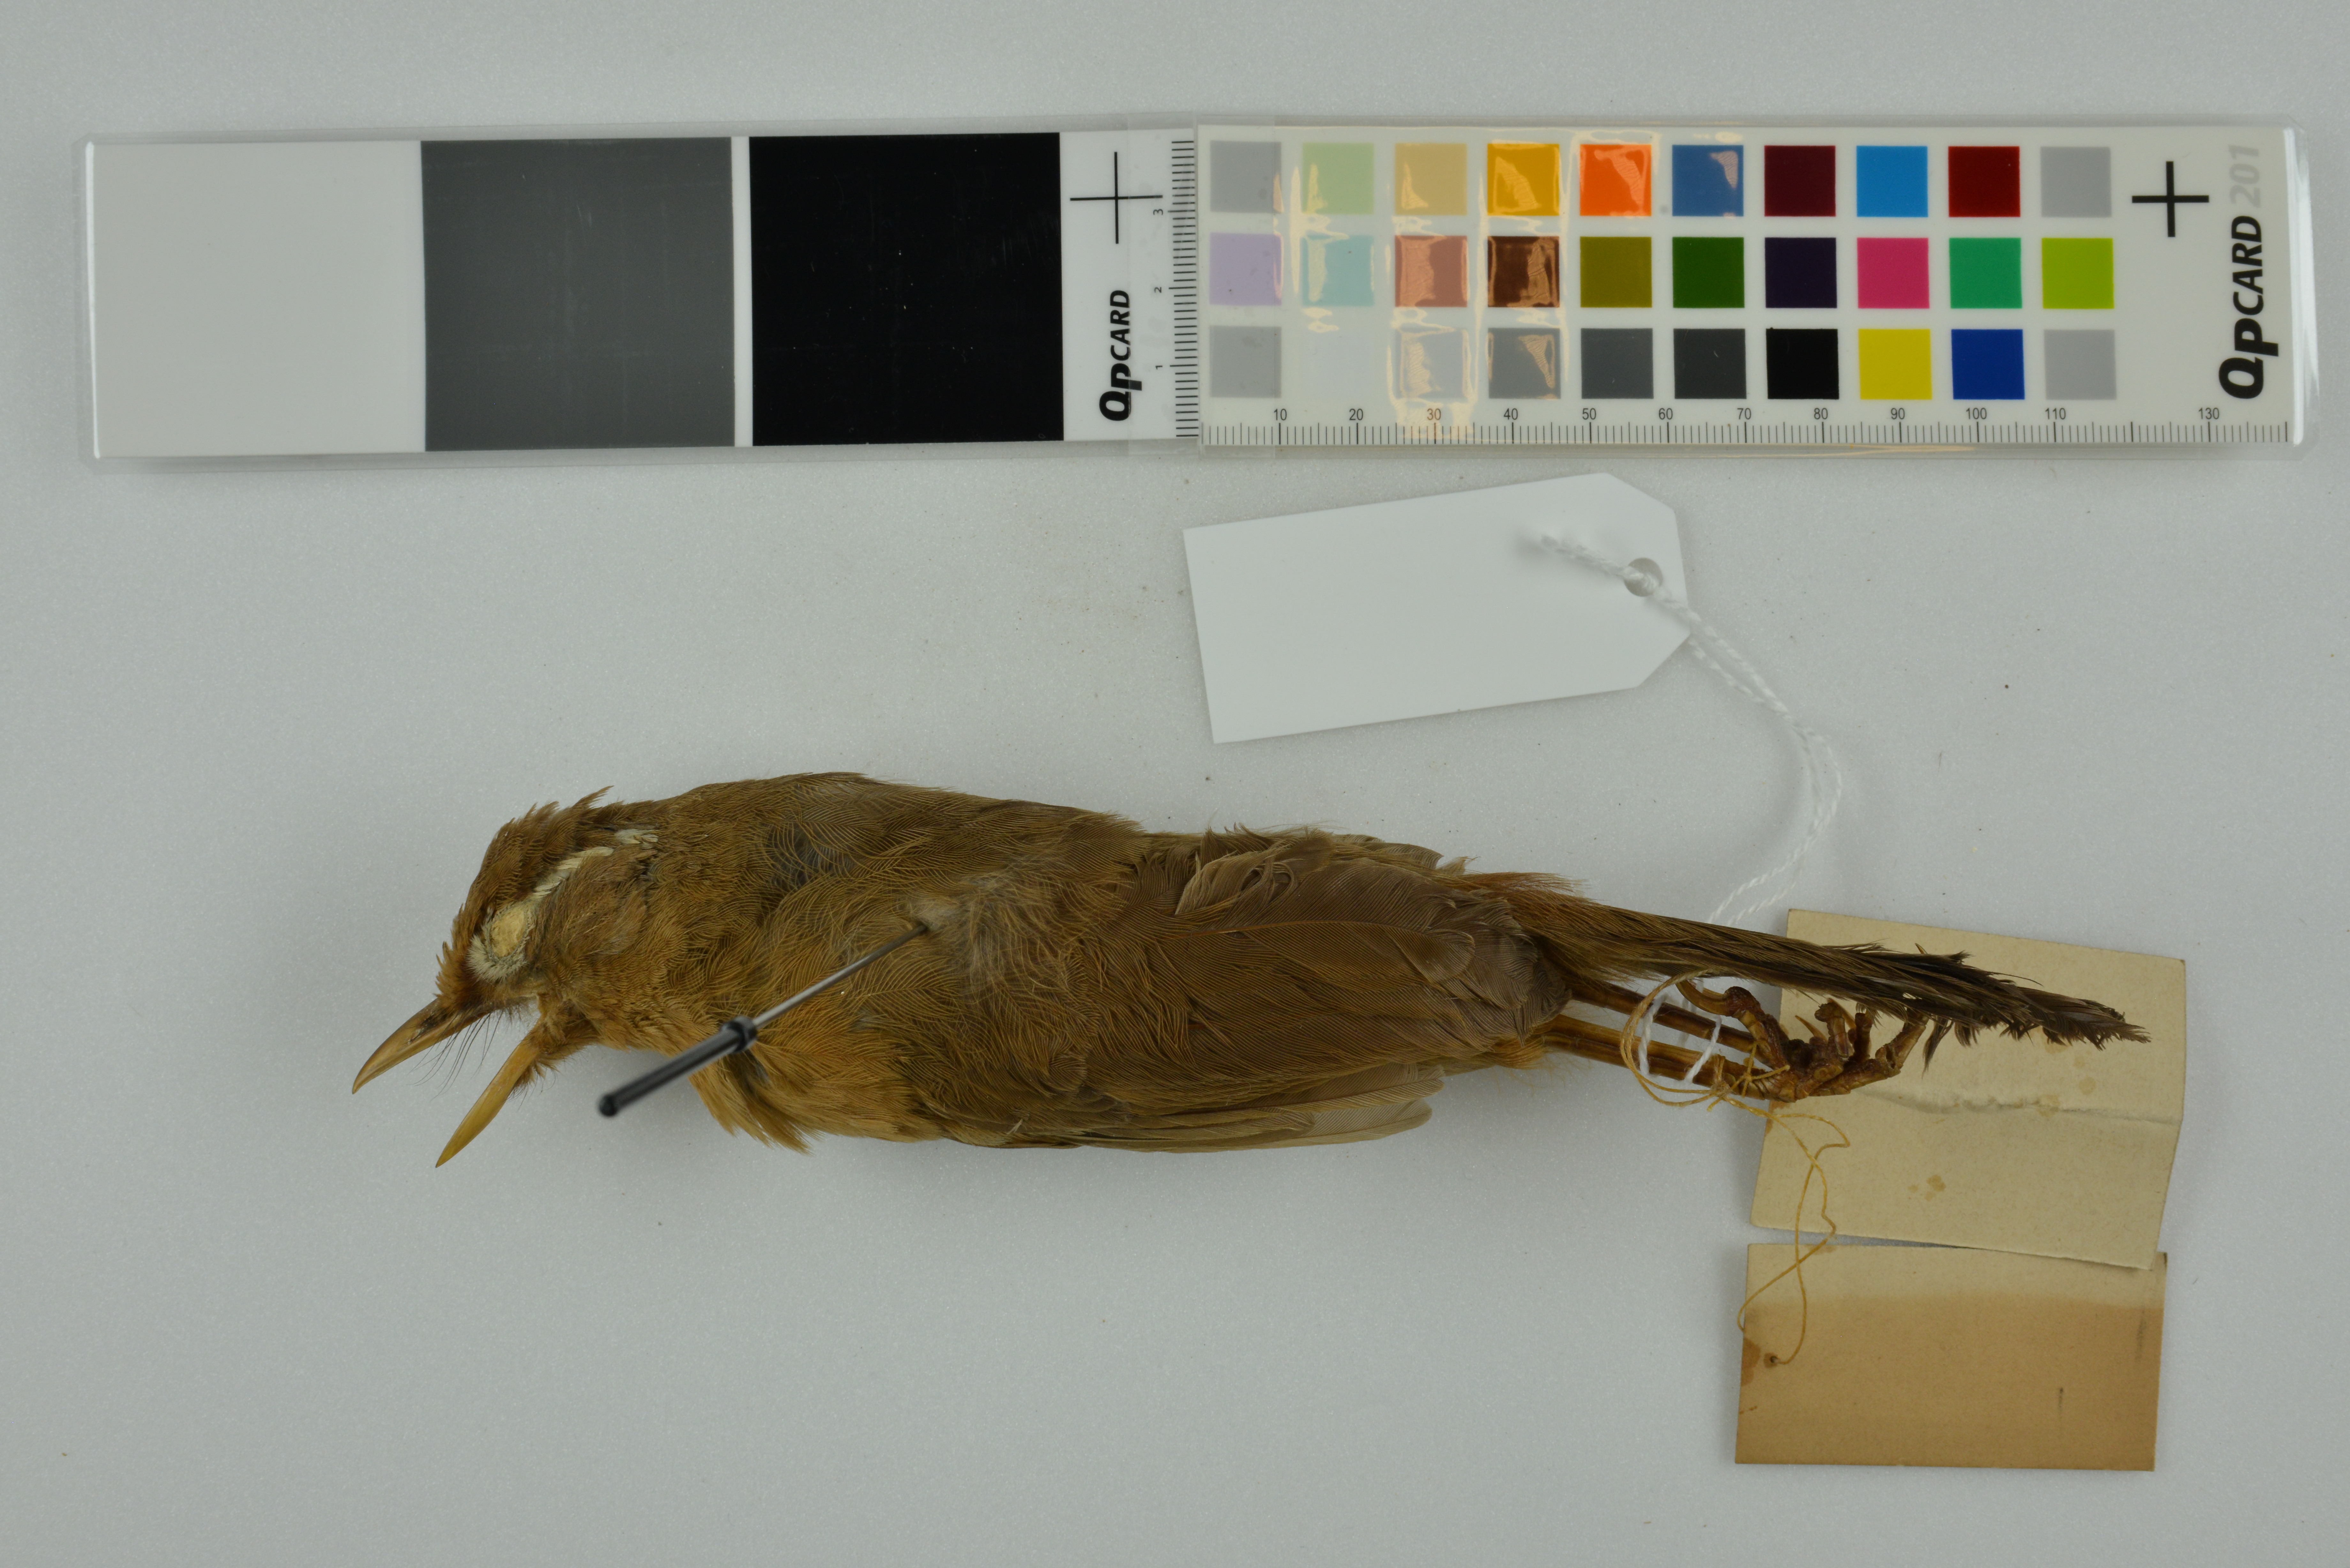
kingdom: Animalia
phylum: Chordata
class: Aves
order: Passeriformes
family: Leiothrichidae
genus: Garrulax
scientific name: Garrulax canorus
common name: Chinese hwamei
